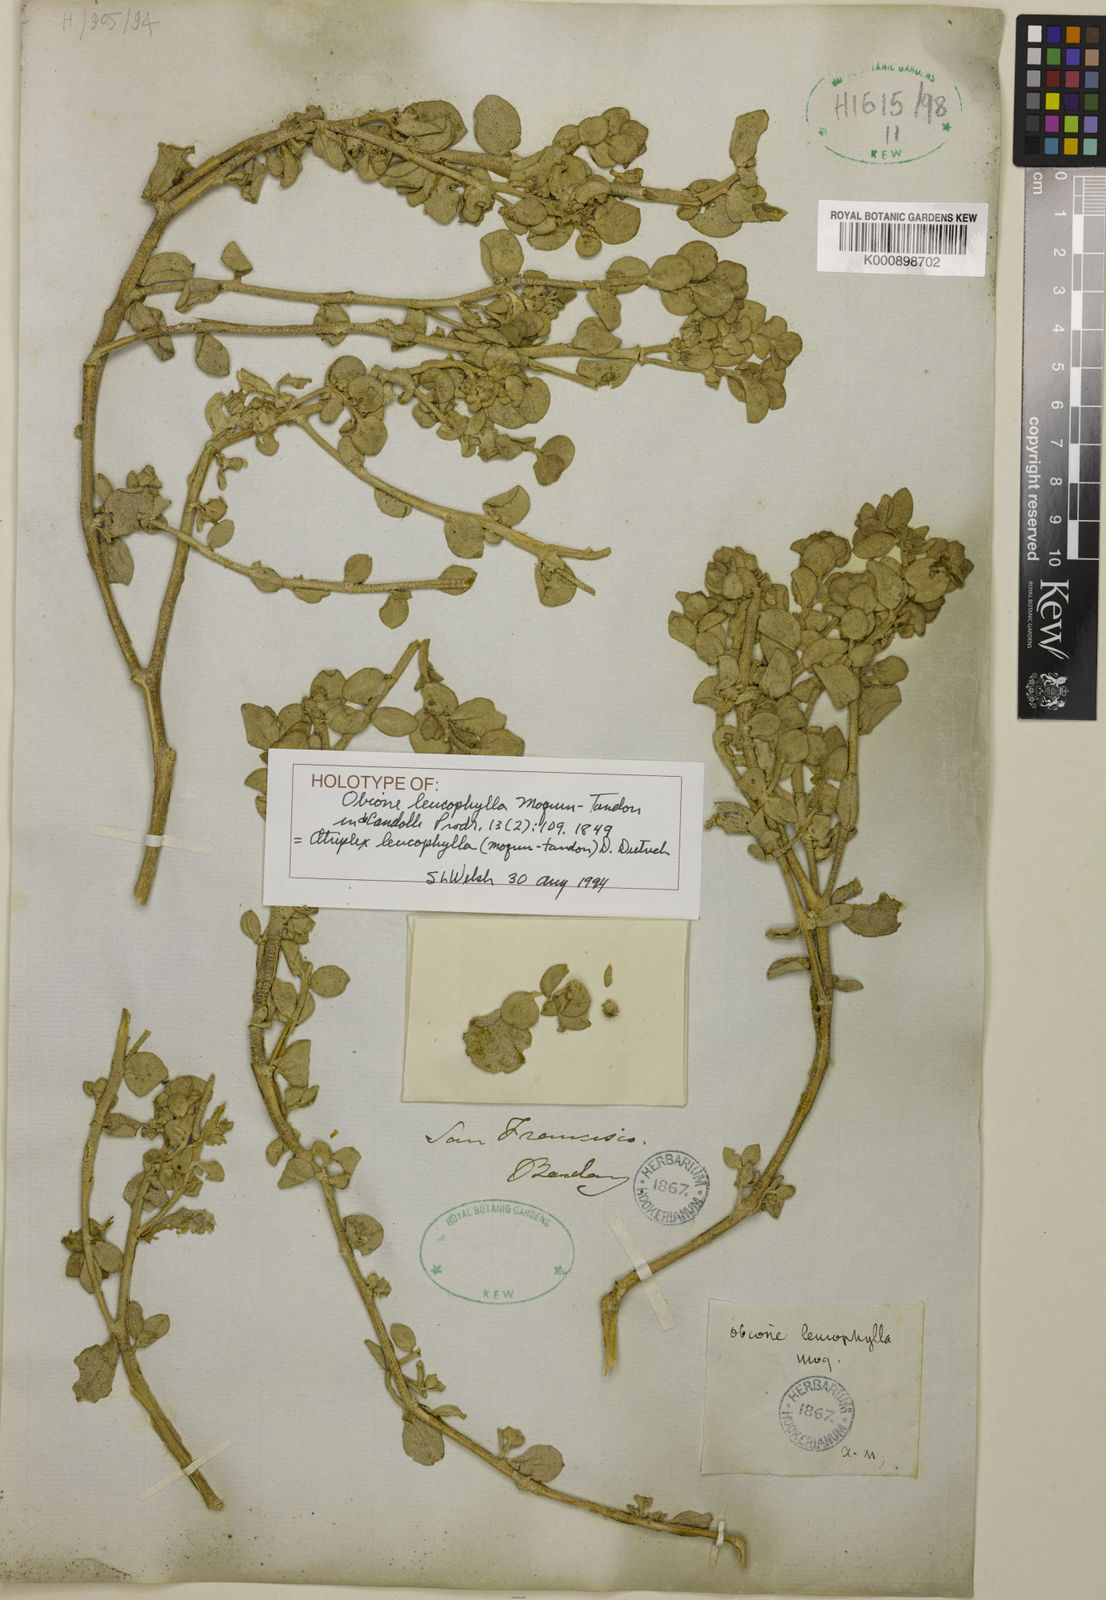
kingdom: Plantae
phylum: Tracheophyta
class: Magnoliopsida
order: Caryophyllales
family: Amaranthaceae
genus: Atriplex
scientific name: Atriplex leucophylla
